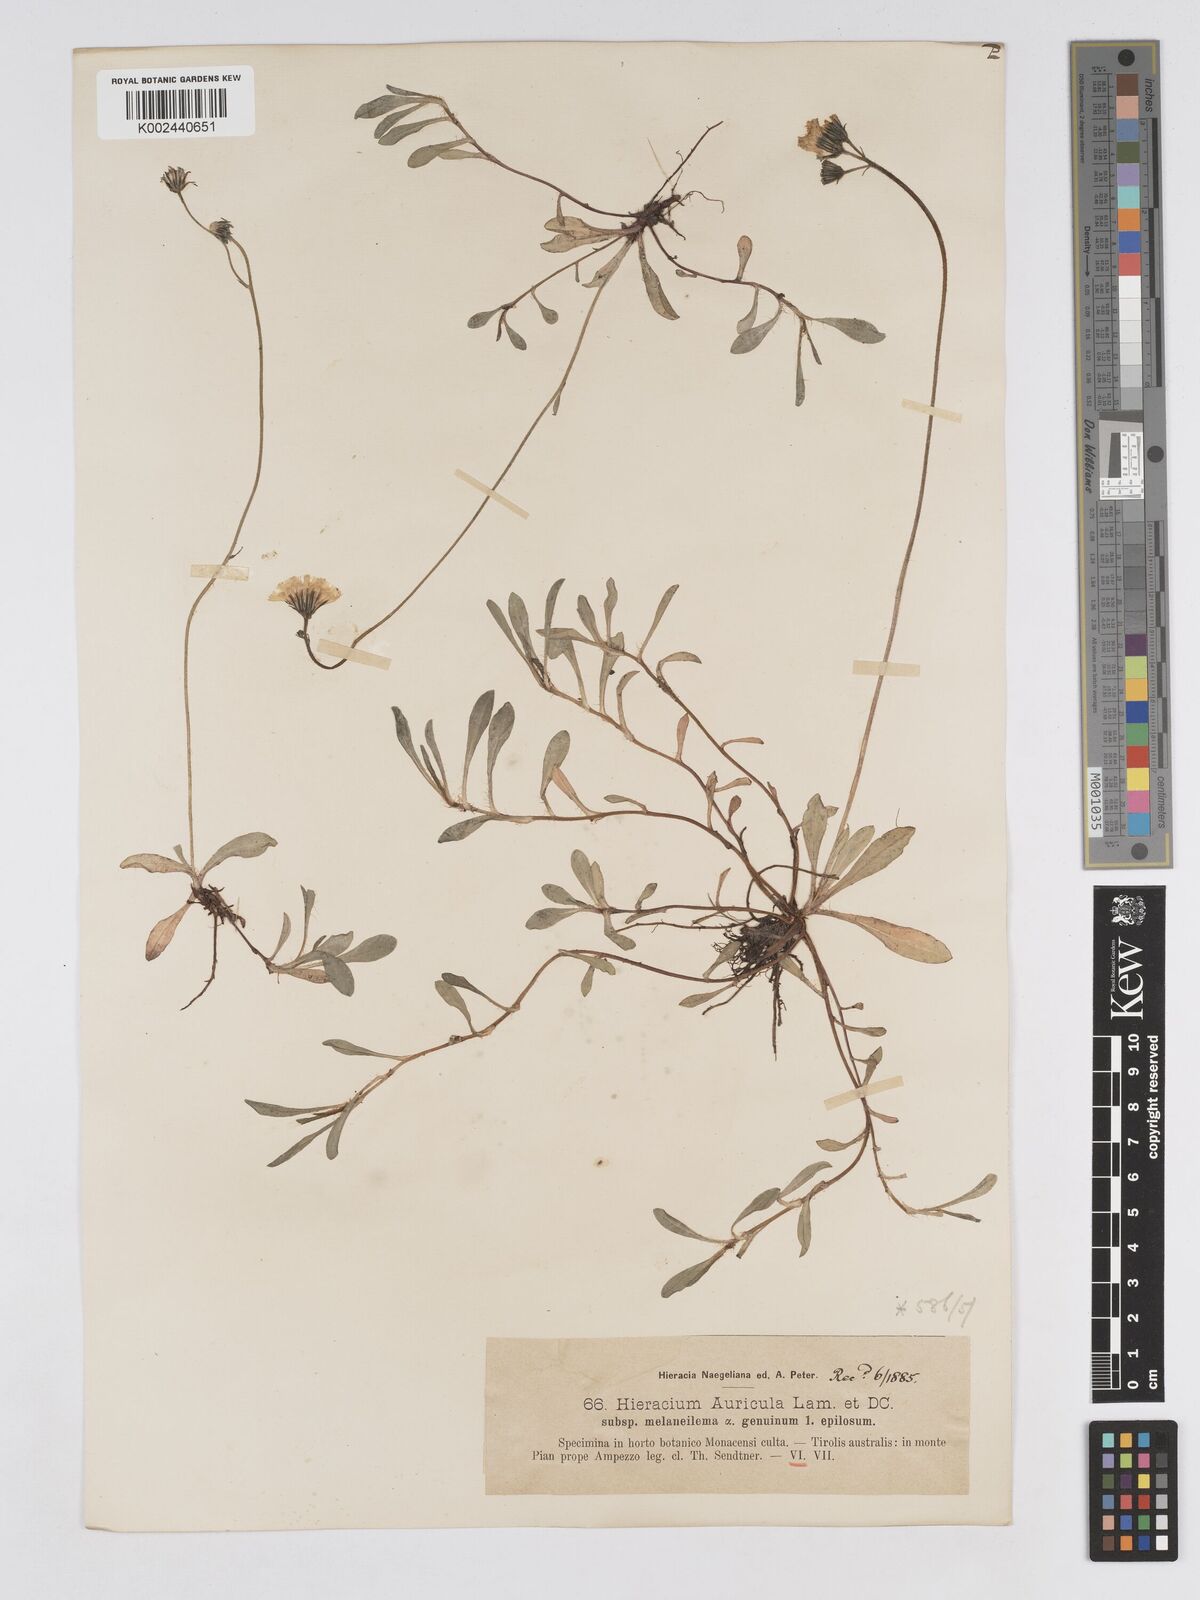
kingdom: Plantae
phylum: Tracheophyta
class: Magnoliopsida
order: Asterales
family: Asteraceae
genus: Pilosella
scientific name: Pilosella lactucella
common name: Glaucous fox-and-cubs
